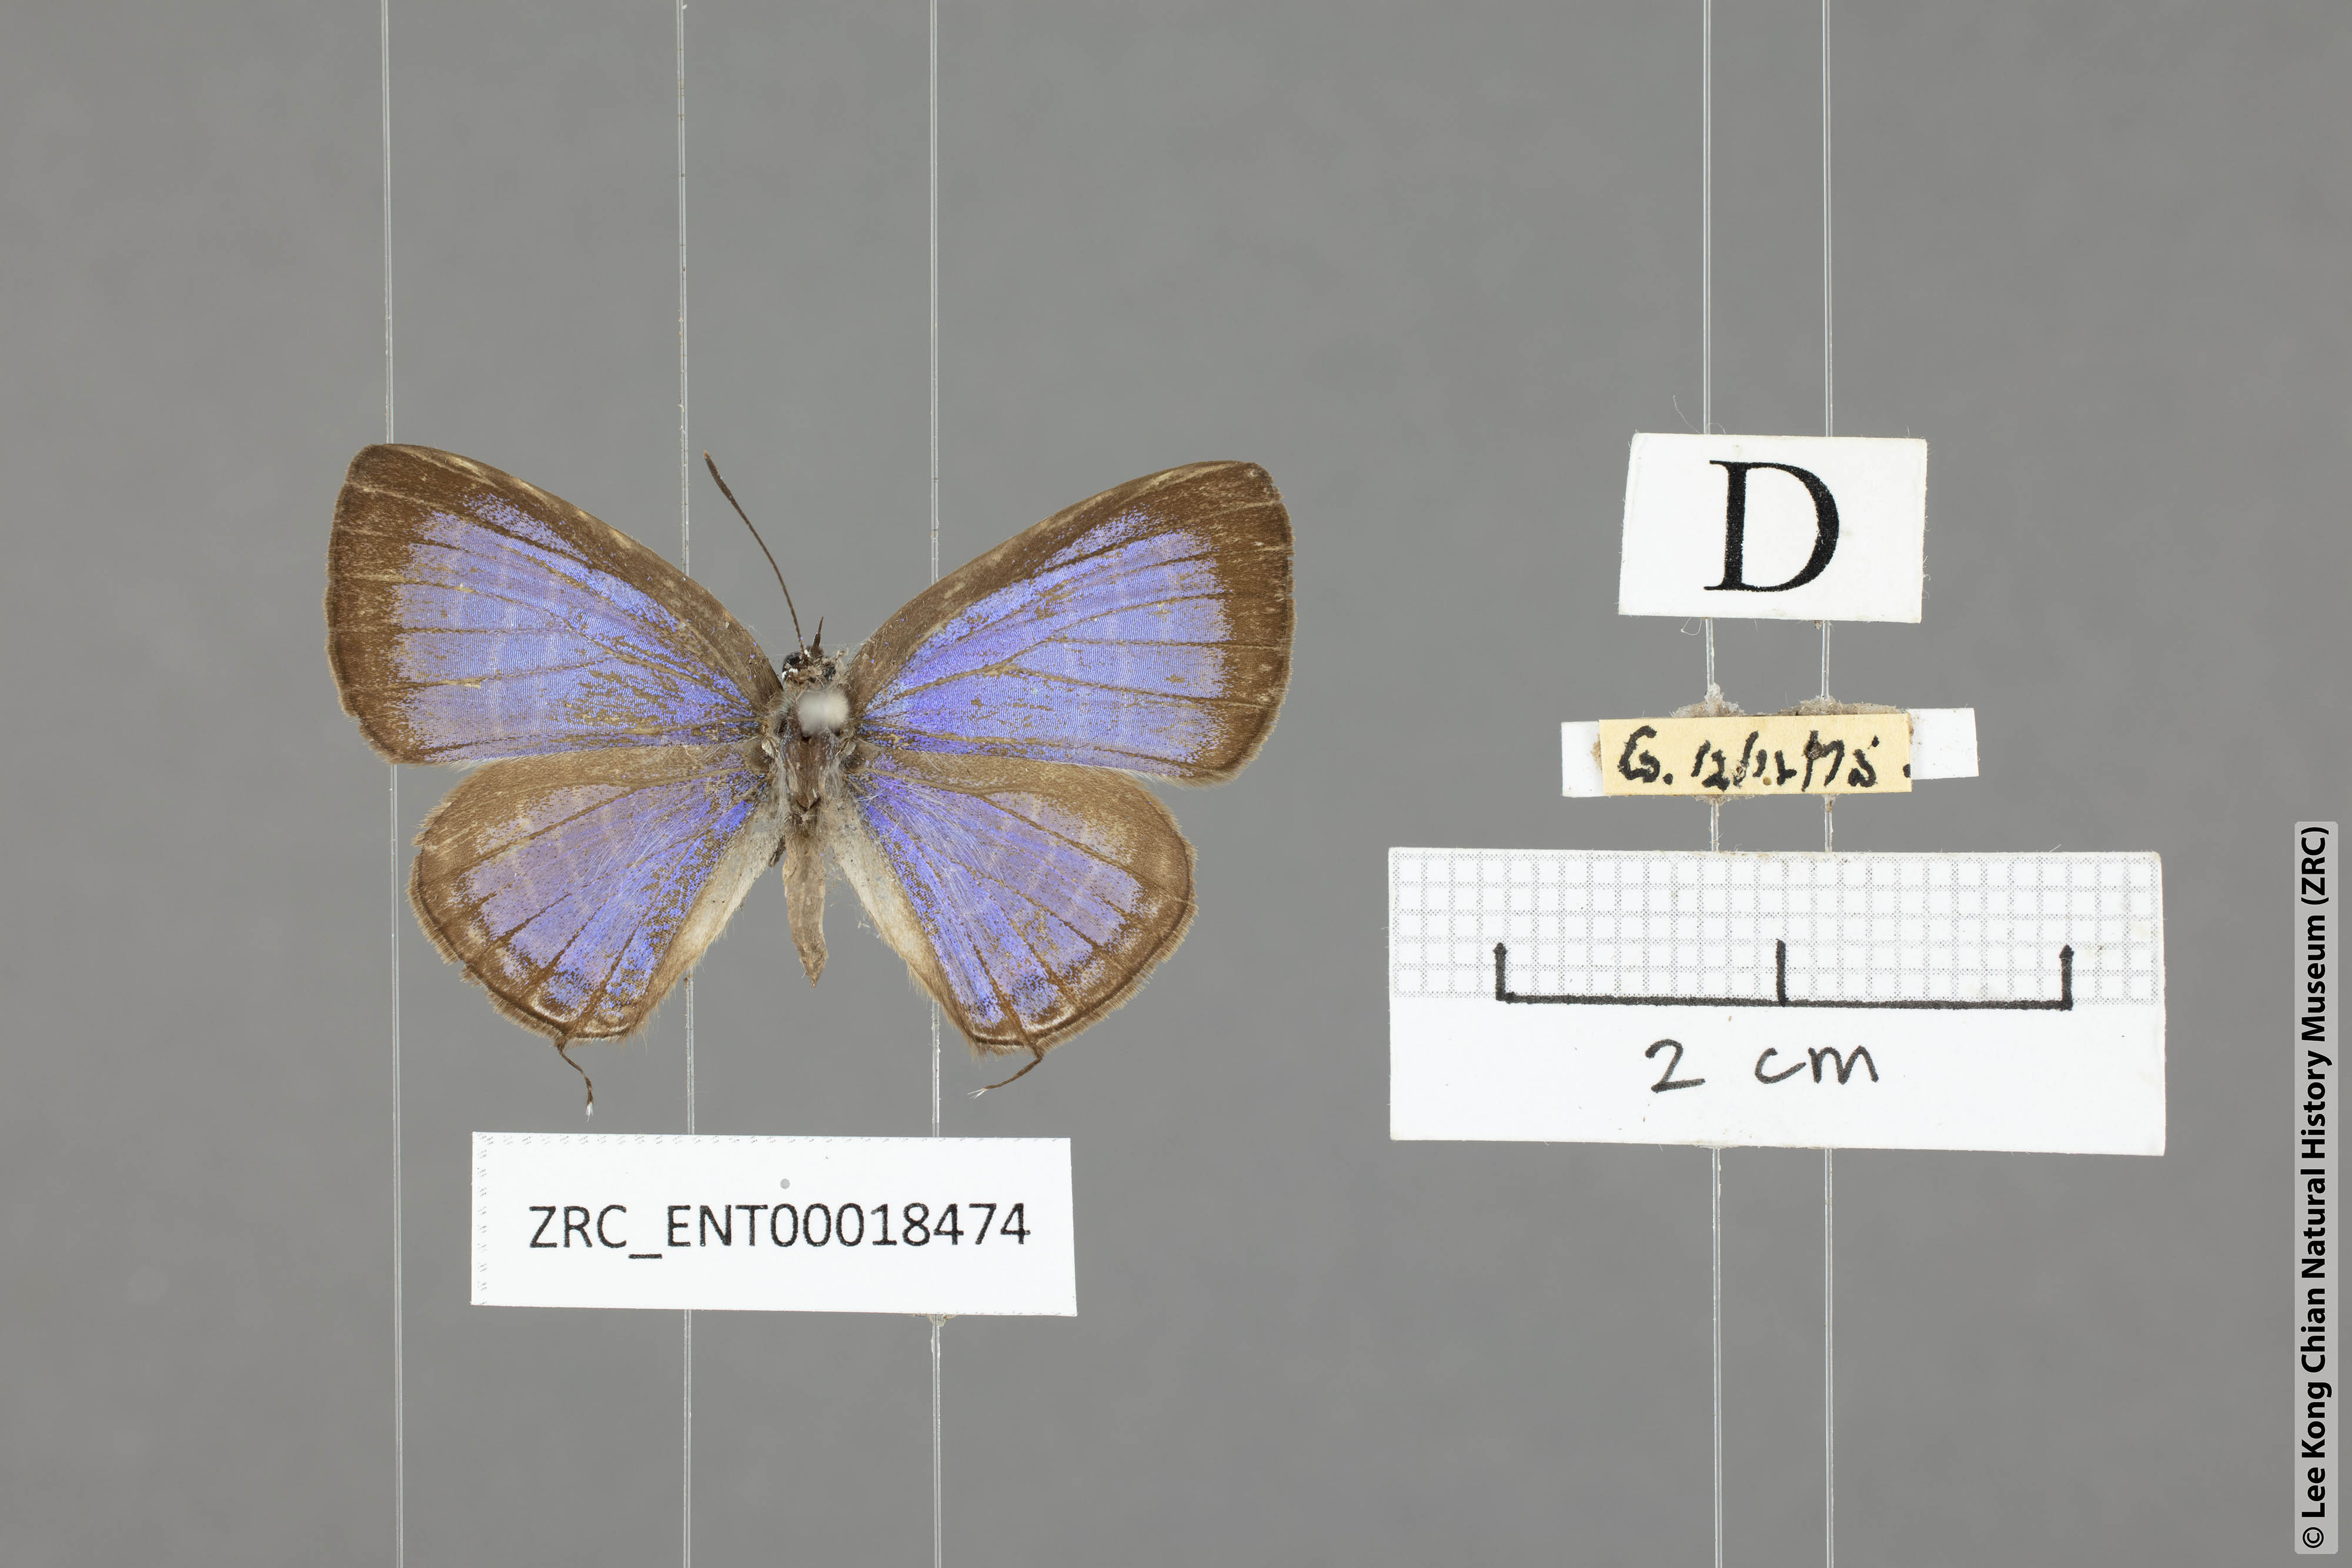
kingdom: Animalia
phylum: Arthropoda
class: Insecta
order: Lepidoptera
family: Lycaenidae
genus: Nacaduba
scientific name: Nacaduba solta
